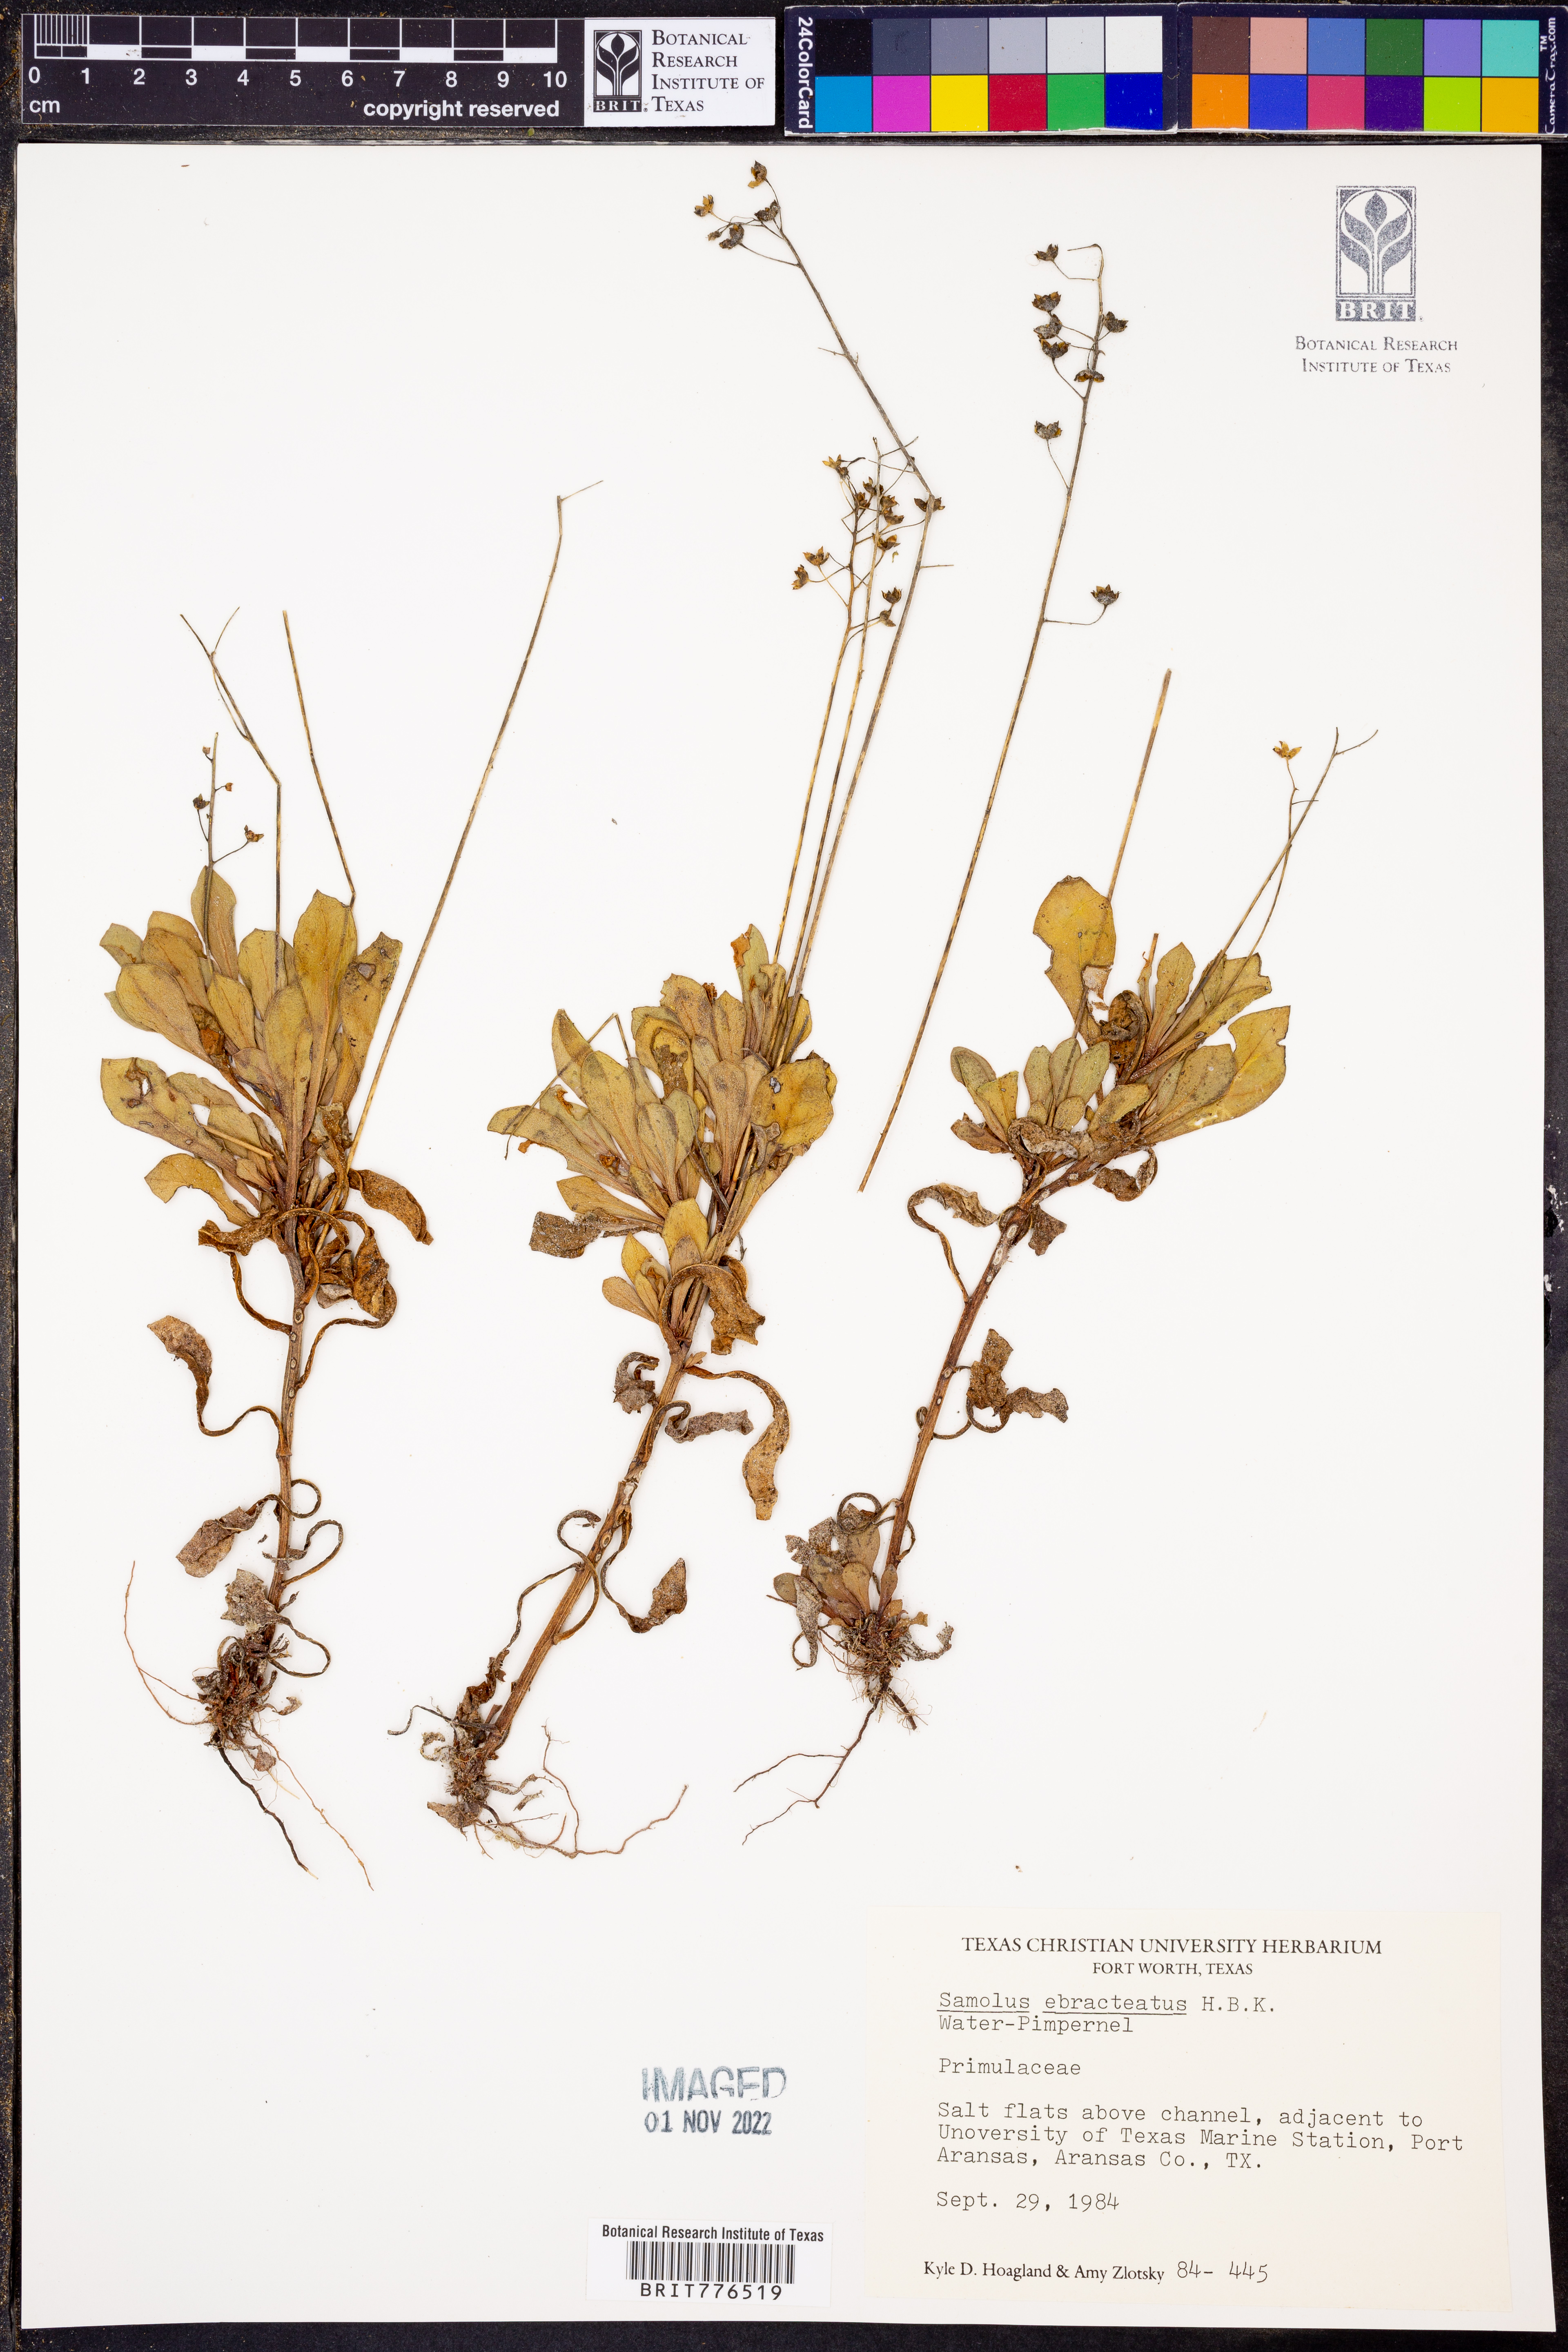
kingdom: Plantae
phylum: Tracheophyta
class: Magnoliopsida
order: Ericales
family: Primulaceae
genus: Samolus
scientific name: Samolus ebracteatus
